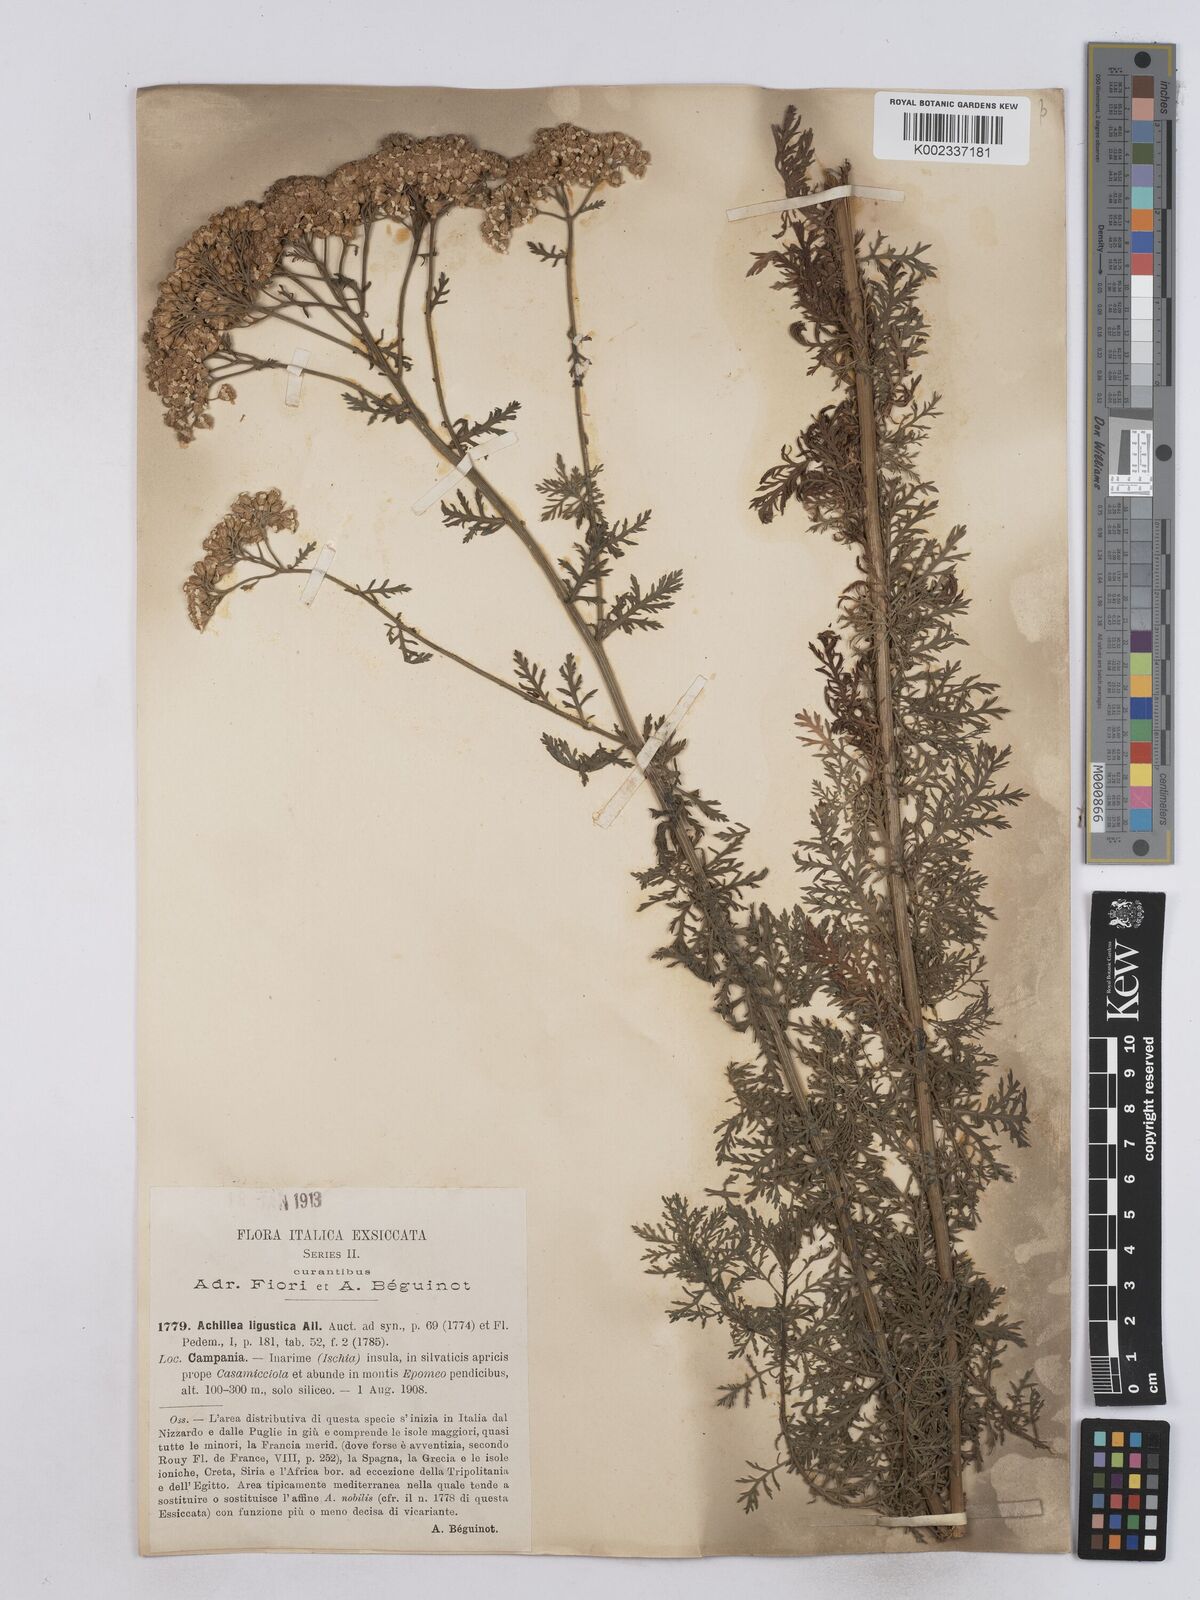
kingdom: Plantae
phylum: Tracheophyta
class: Magnoliopsida
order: Asterales
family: Asteraceae
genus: Achillea
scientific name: Achillea ligustica
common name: Southern yarrow
